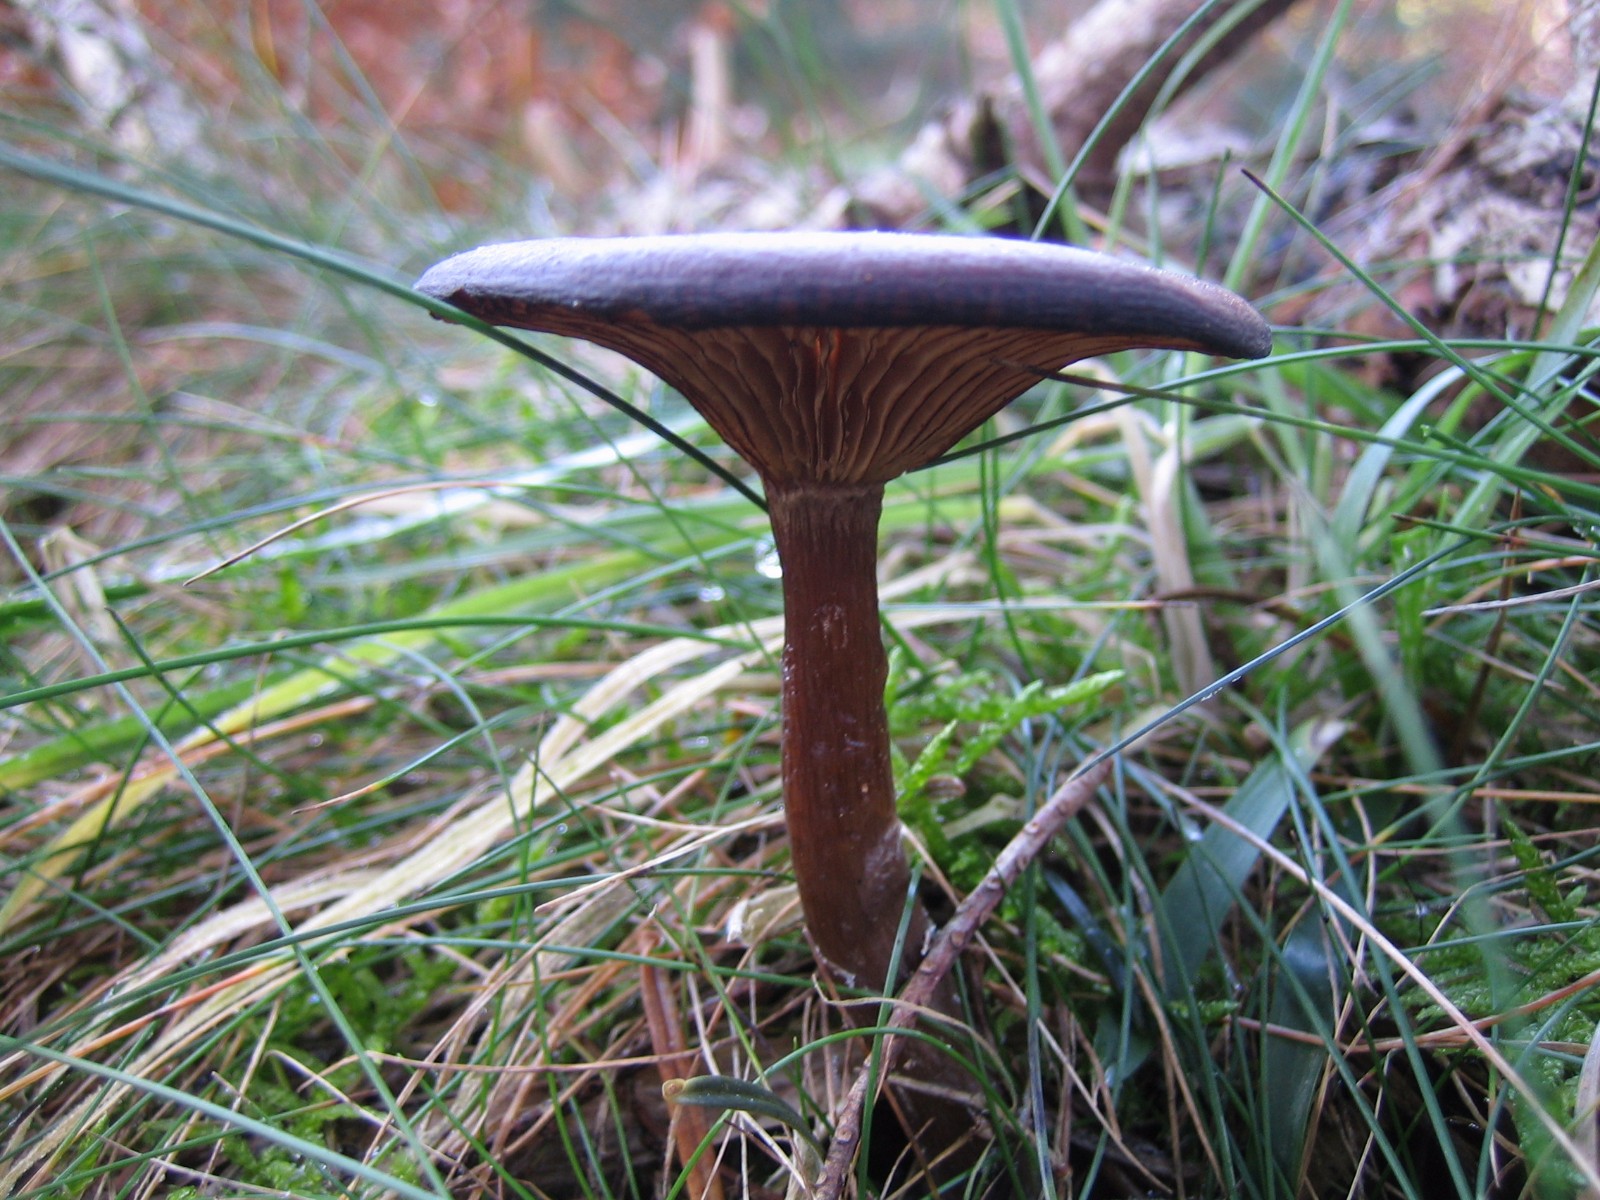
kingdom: Fungi
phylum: Basidiomycota
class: Agaricomycetes
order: Agaricales
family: Pseudoclitocybaceae
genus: Pseudoclitocybe
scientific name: Pseudoclitocybe cyathiformis
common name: almindelig bægertragthat
